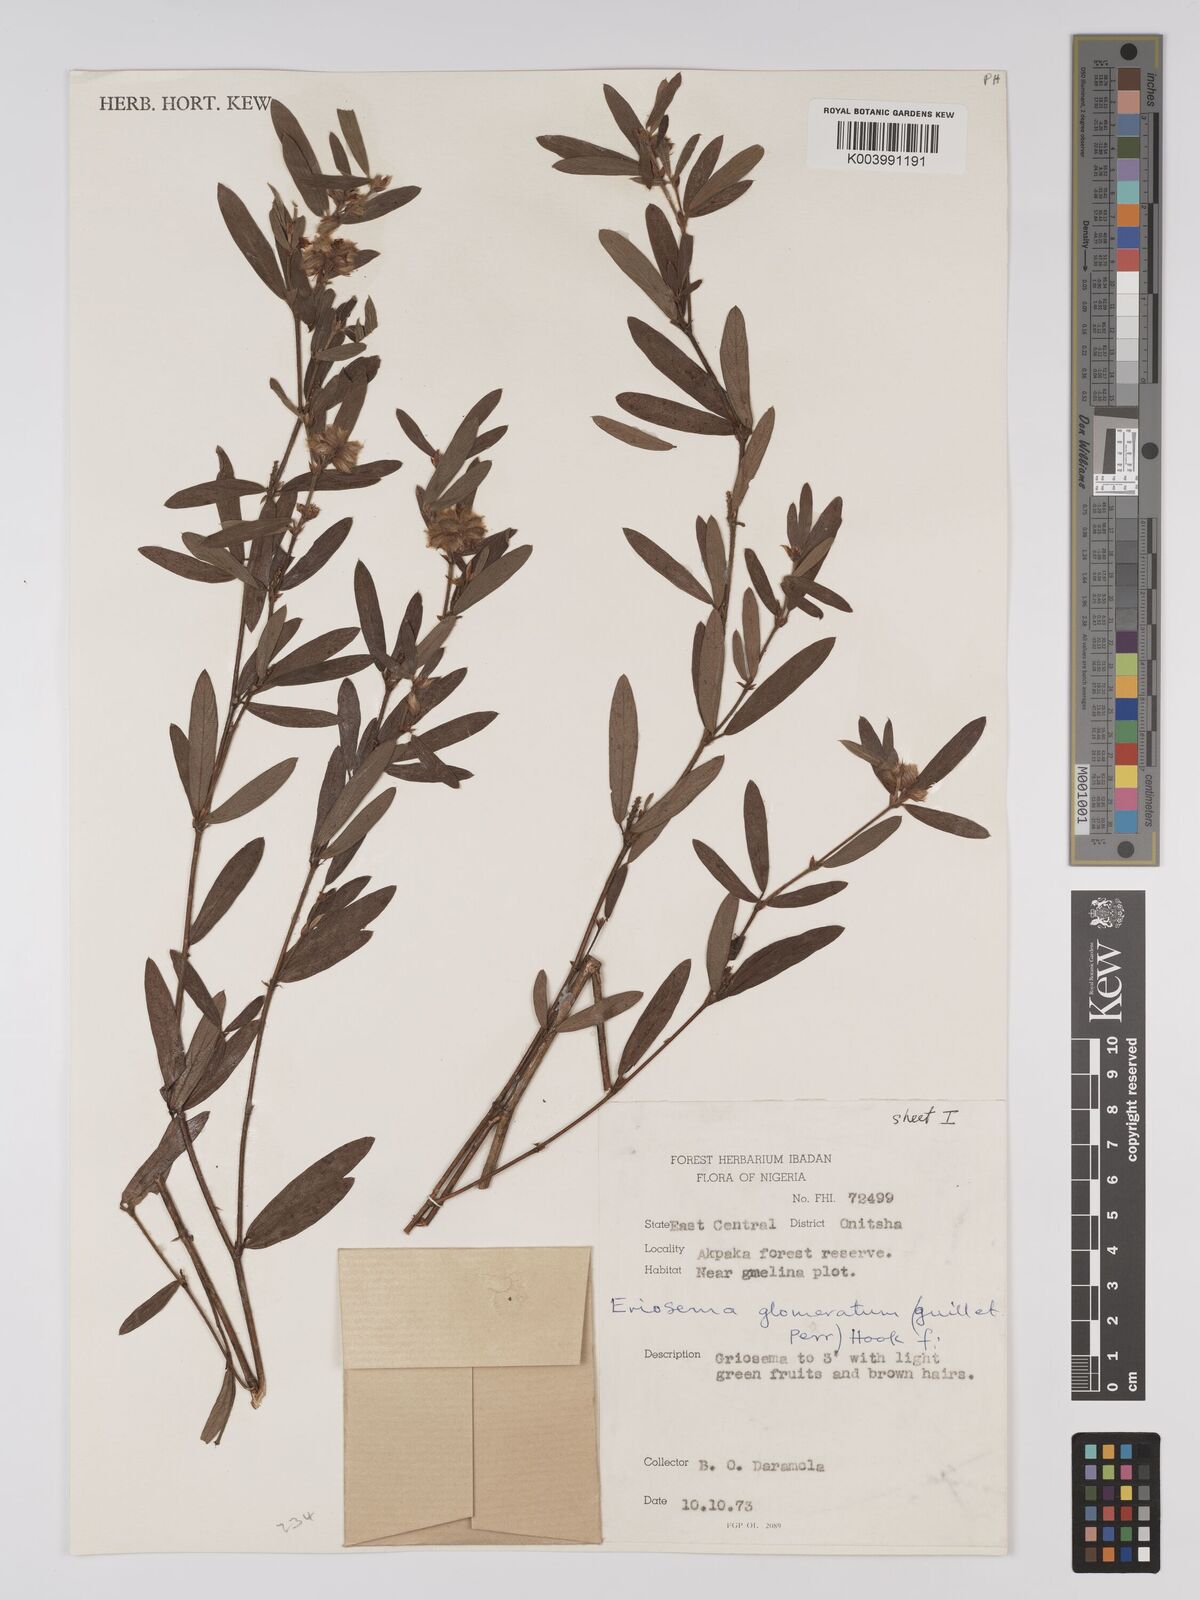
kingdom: Plantae
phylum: Tracheophyta
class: Magnoliopsida
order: Fabales
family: Fabaceae
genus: Eriosema
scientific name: Eriosema glomeratum
